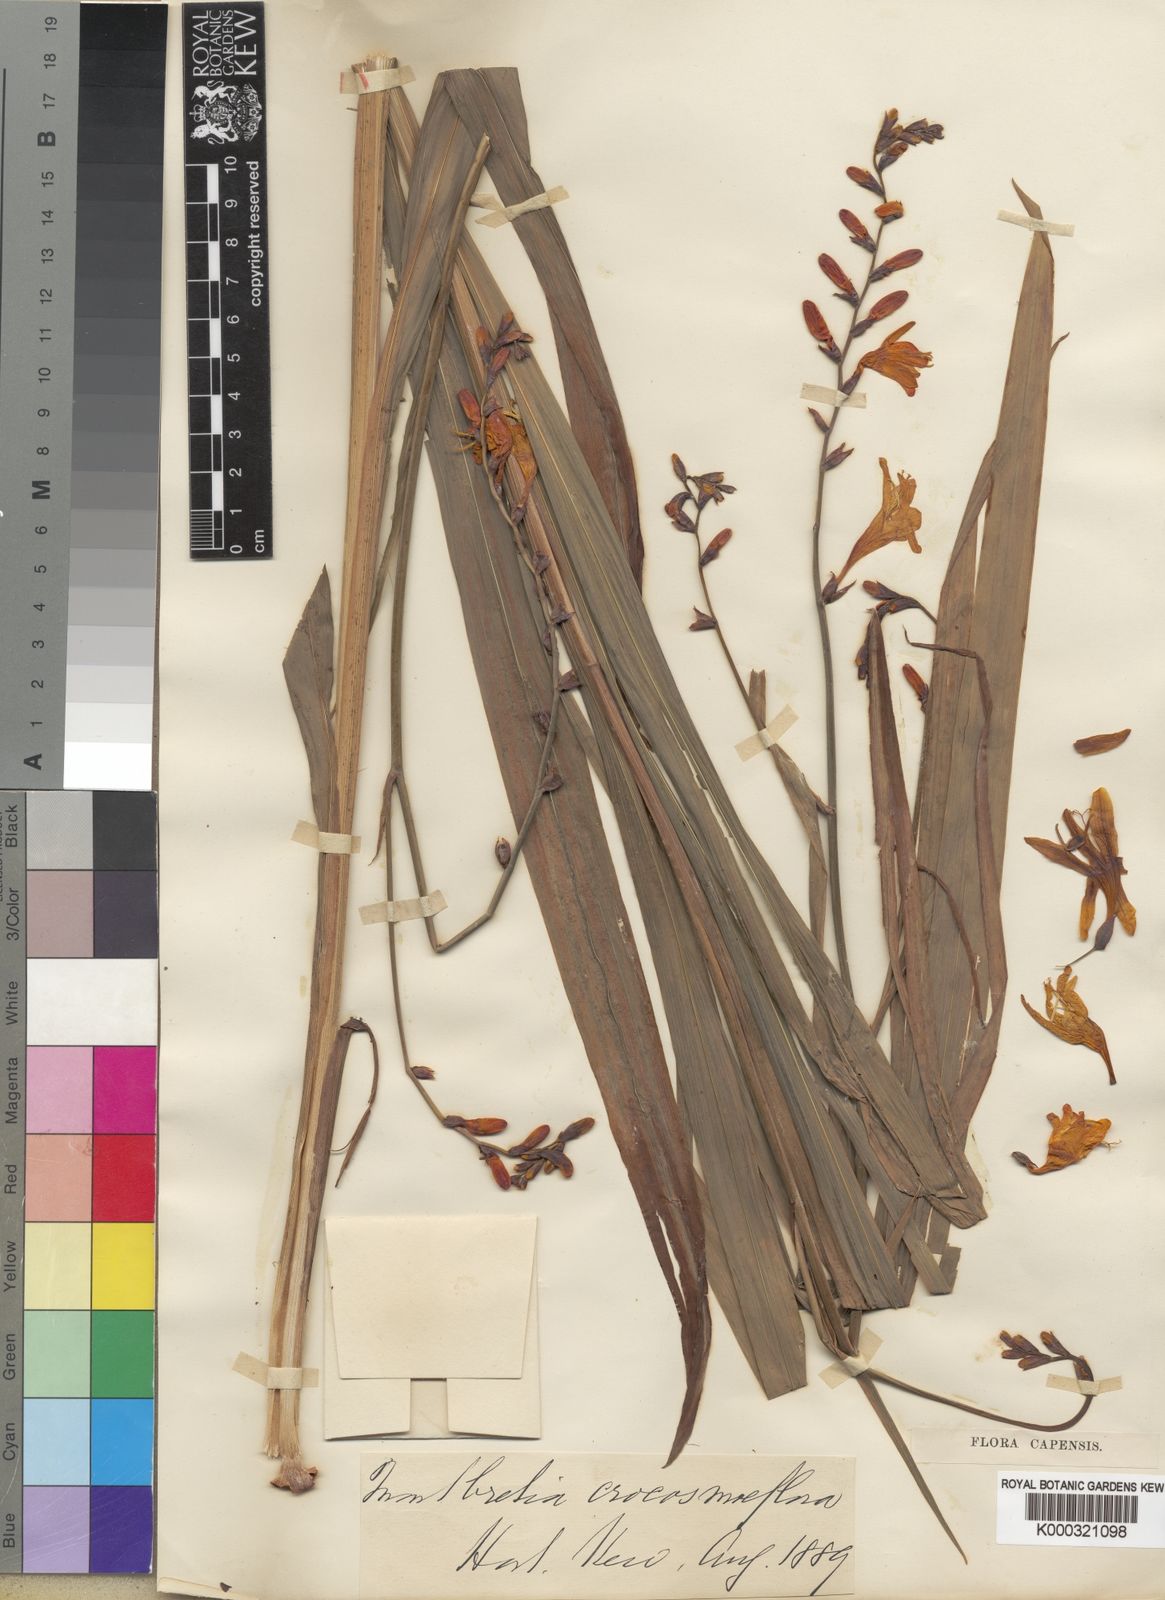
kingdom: Plantae
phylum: Tracheophyta
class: Liliopsida
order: Asparagales
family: Iridaceae
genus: Crocosmia
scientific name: Crocosmia crocosmiiflora
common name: Montbretia
